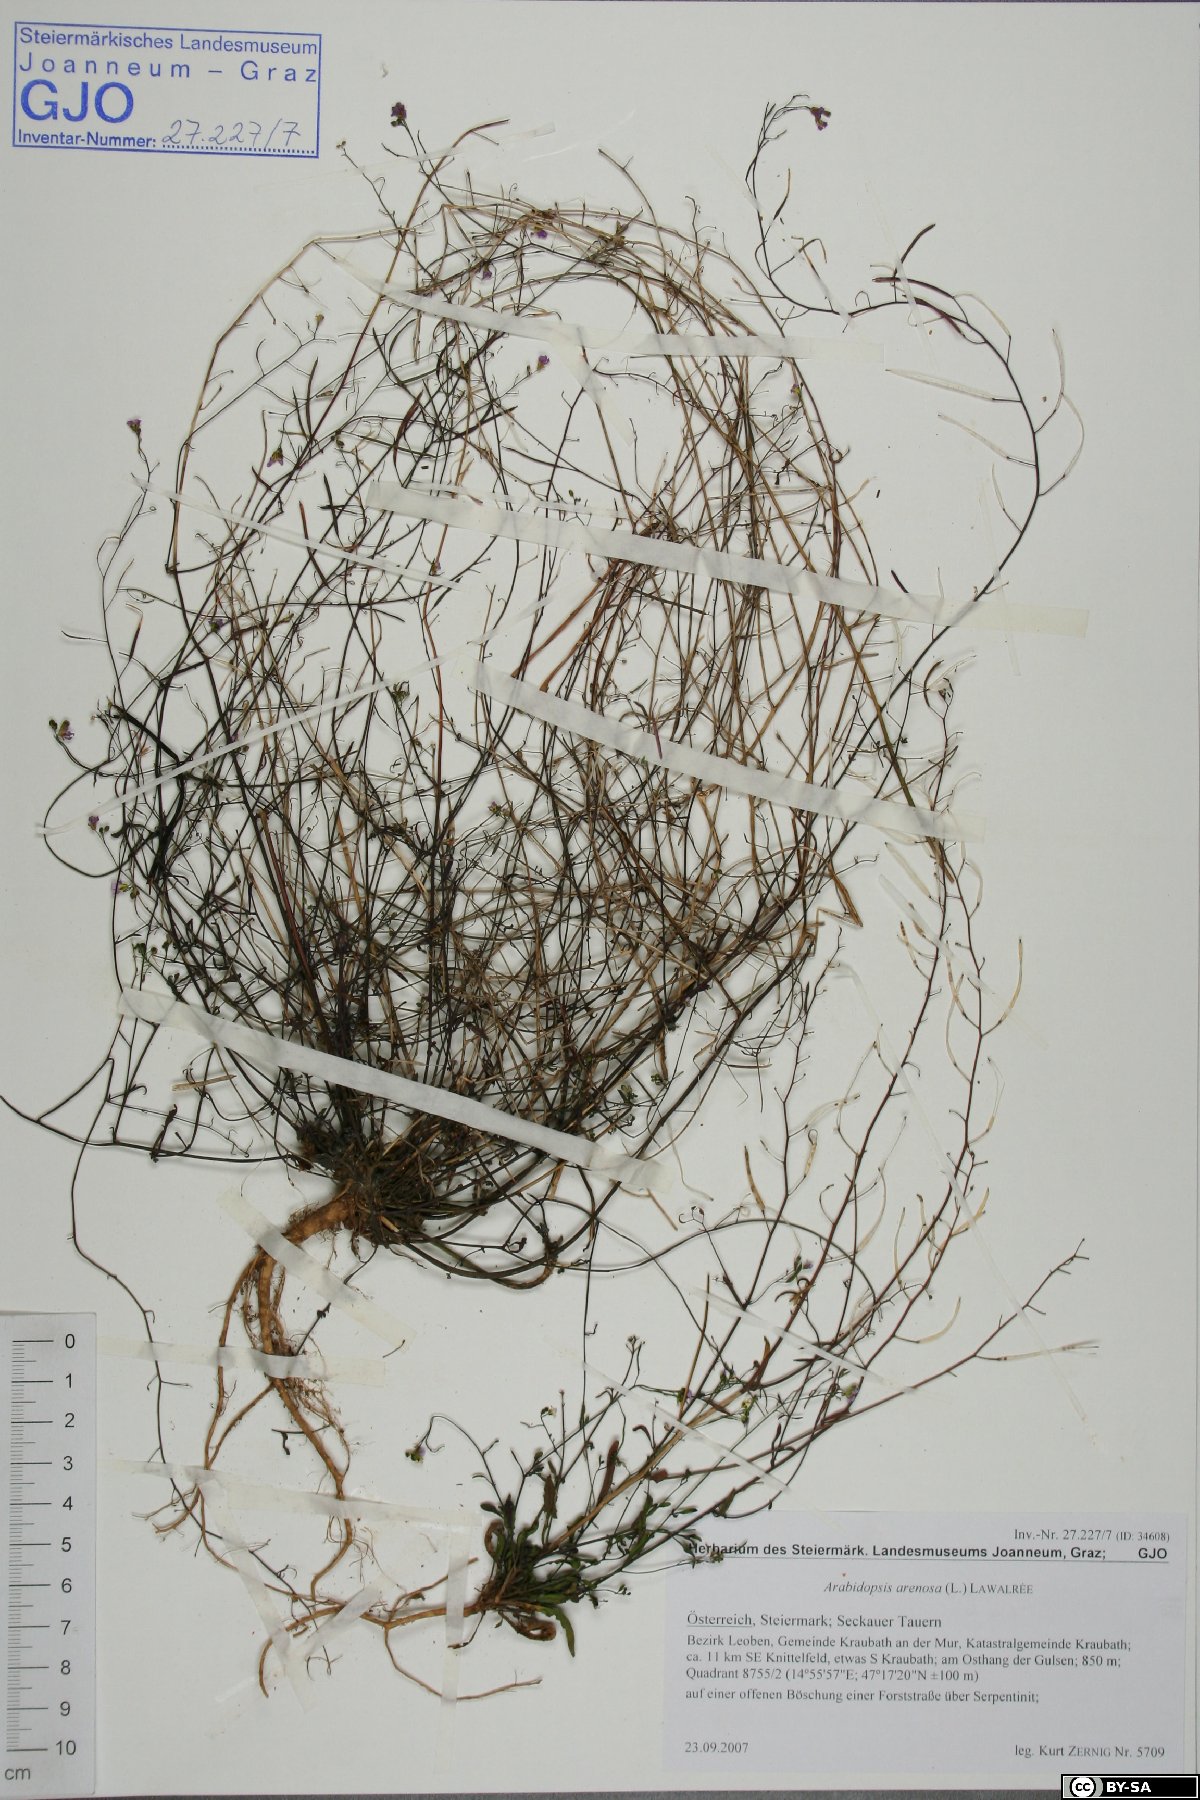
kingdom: Plantae
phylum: Tracheophyta
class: Magnoliopsida
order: Brassicales
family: Brassicaceae
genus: Arabidopsis
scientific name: Arabidopsis arenosa
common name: Sand rock-cress
